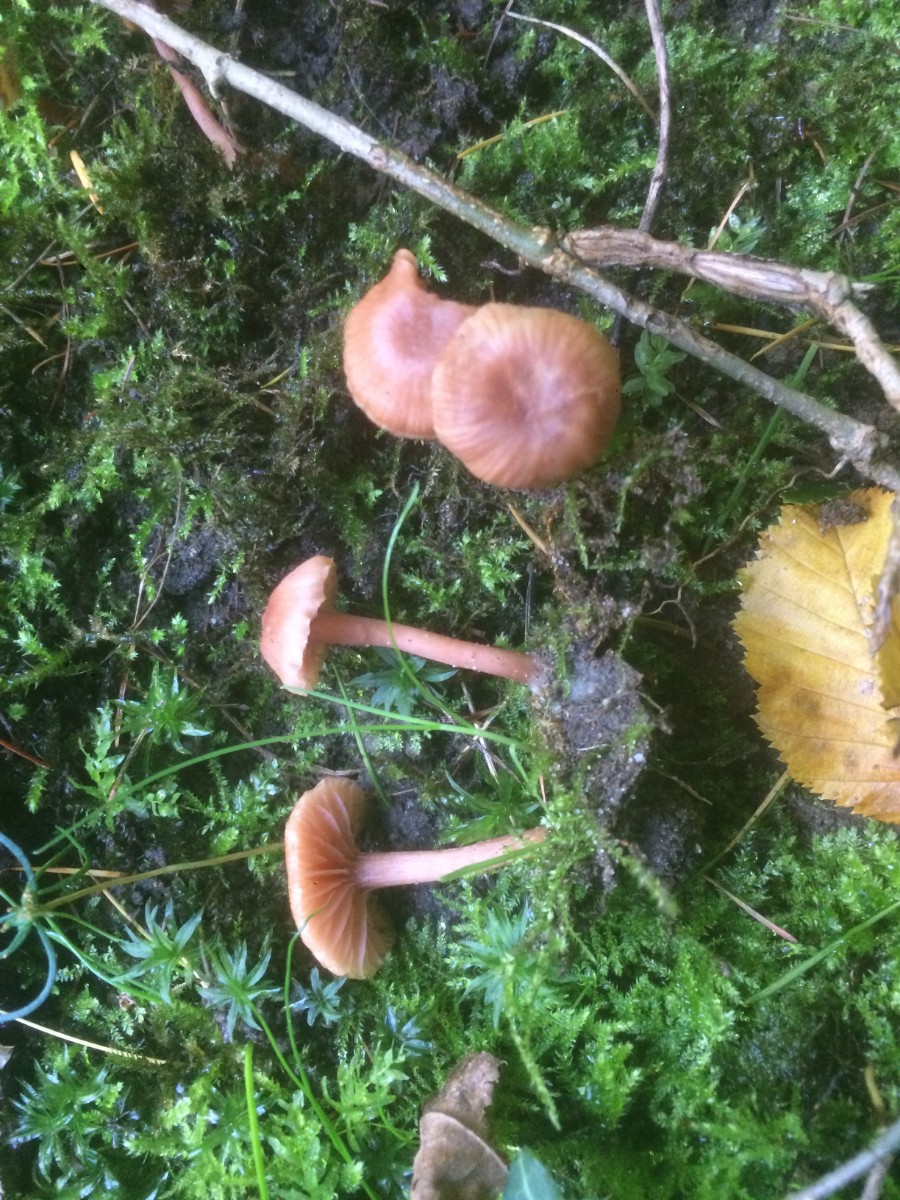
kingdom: Fungi
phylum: Basidiomycota
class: Agaricomycetes
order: Agaricales
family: Hydnangiaceae
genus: Laccaria
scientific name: Laccaria laccata
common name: rød ametysthat
